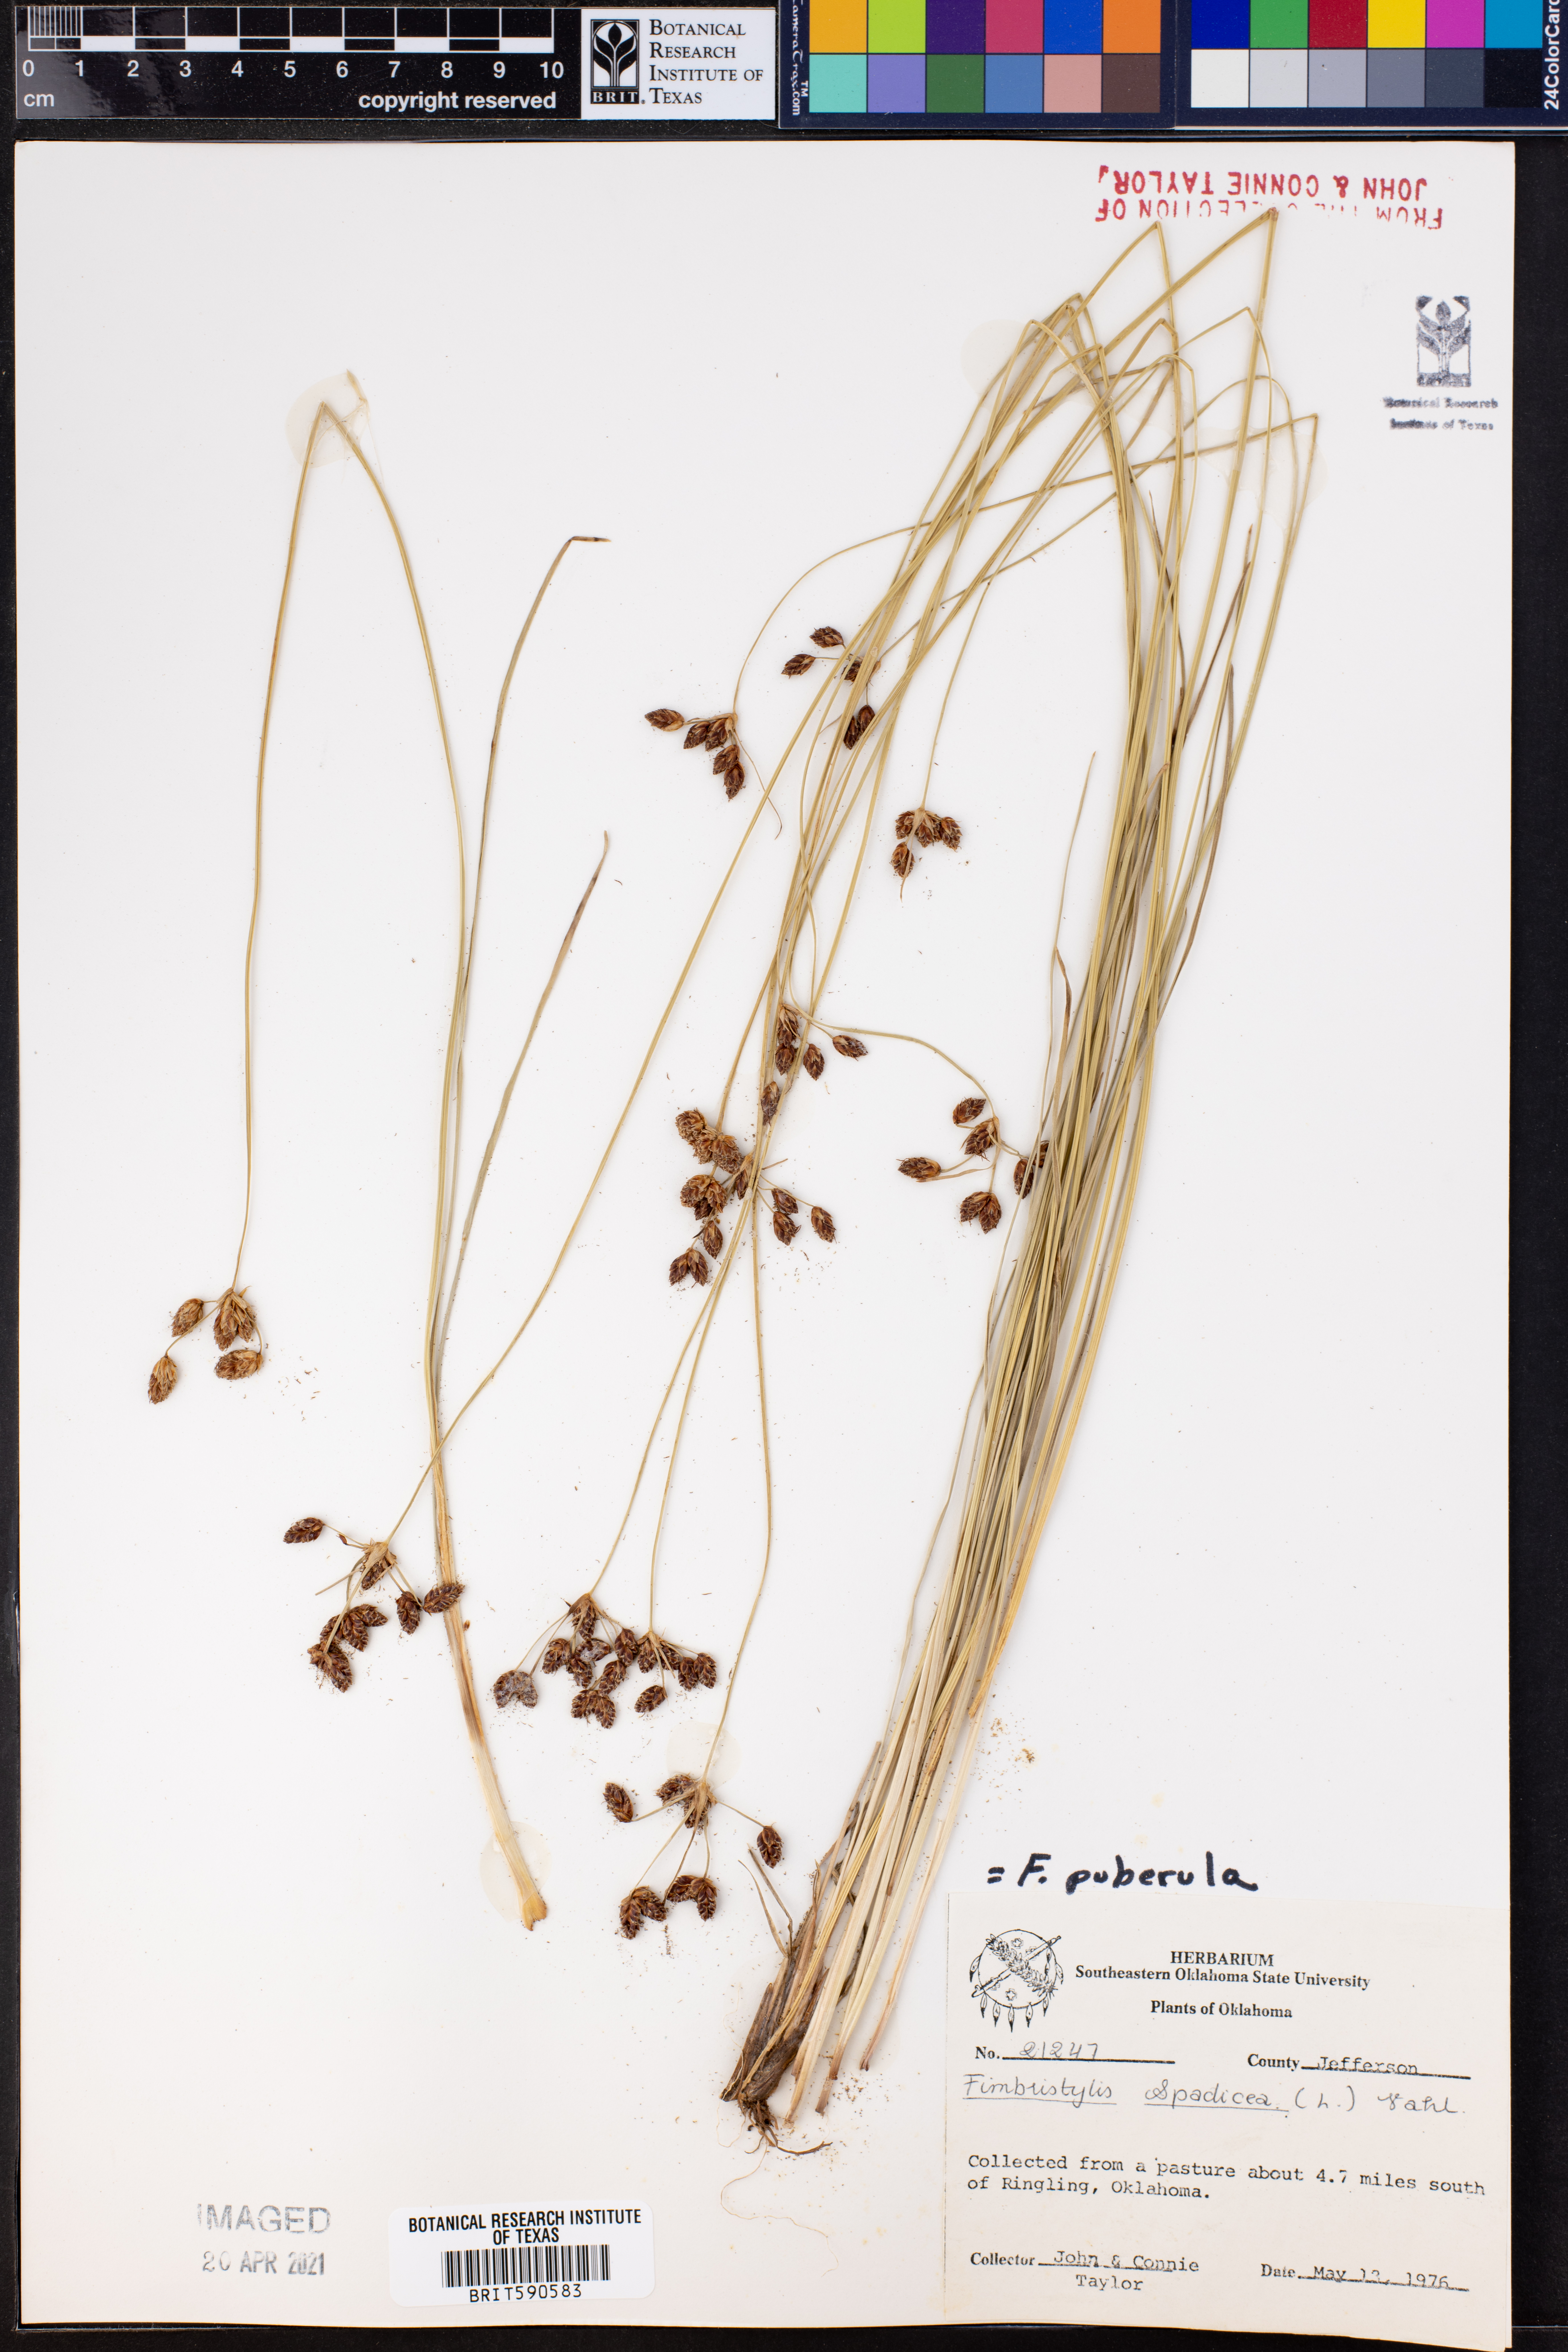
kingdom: Plantae
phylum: Tracheophyta
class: Liliopsida
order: Poales
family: Cyperaceae
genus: Fimbristylis
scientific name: Fimbristylis puberula
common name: Hairy fimbristylis
